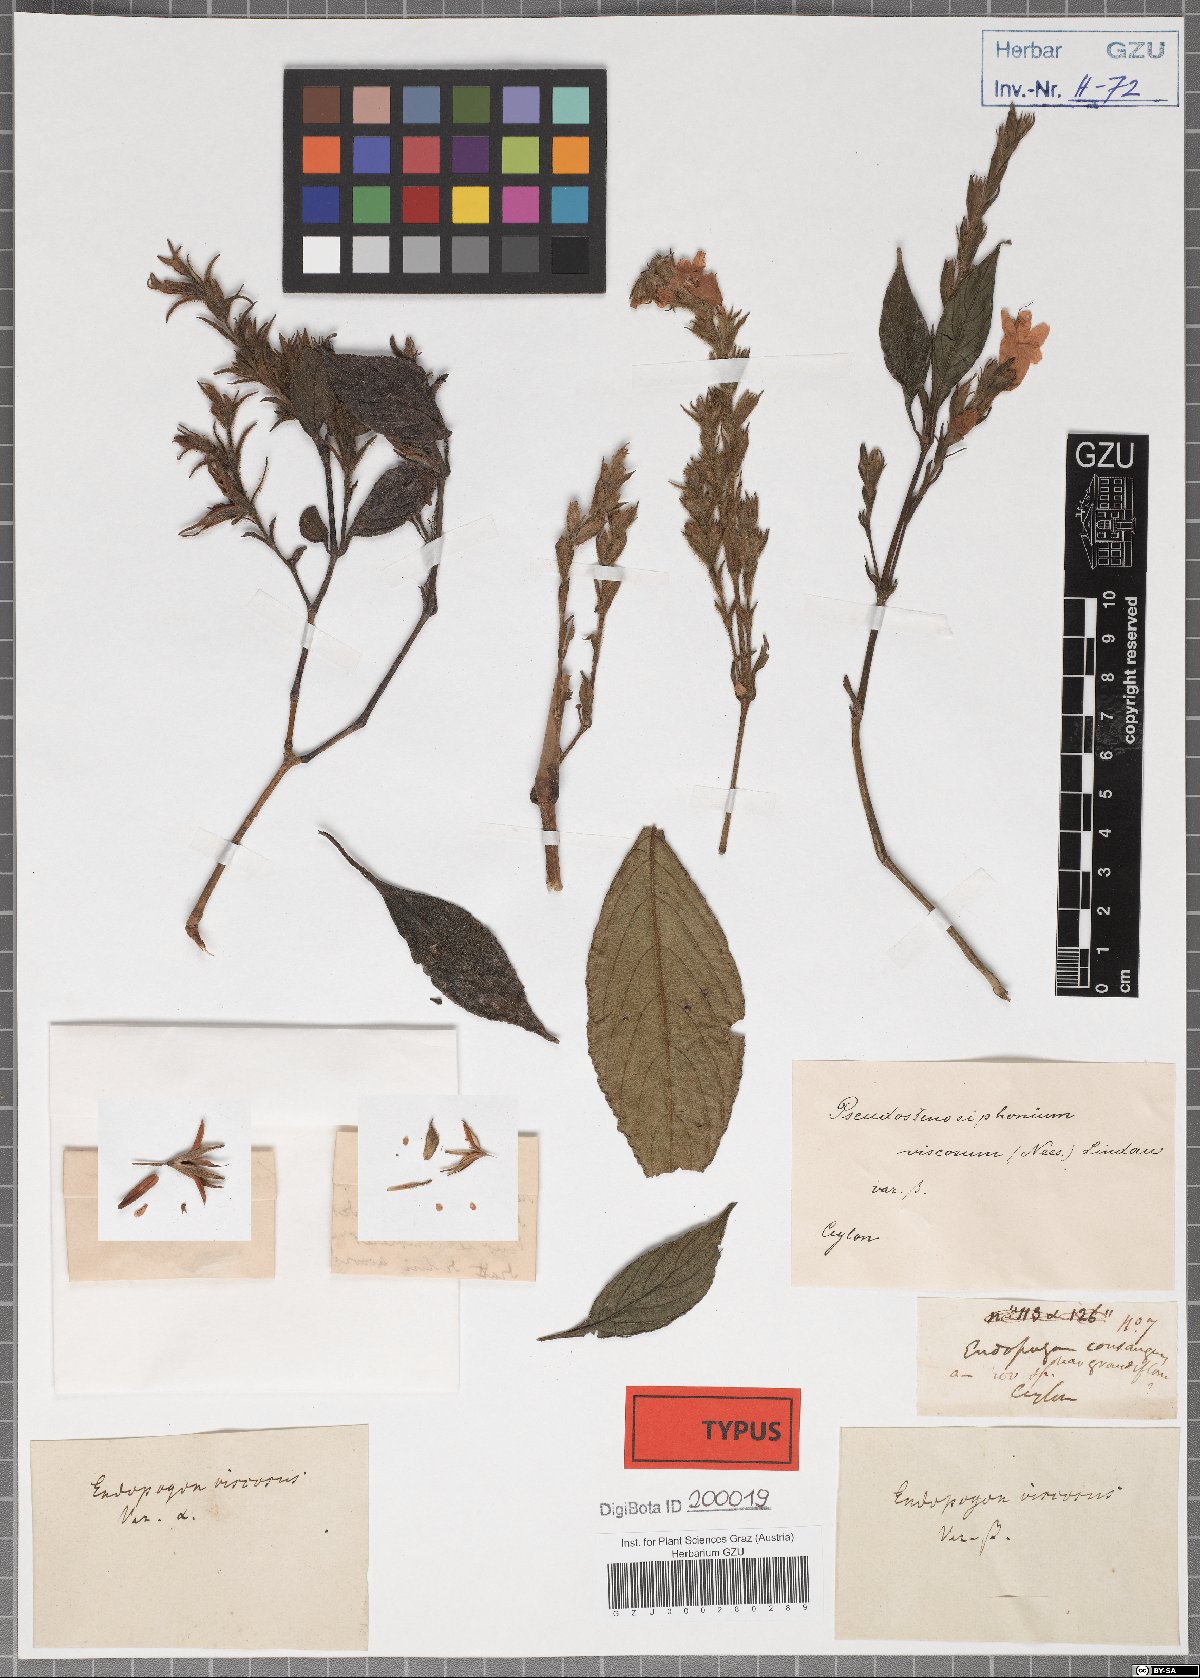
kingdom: Plantae
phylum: Tracheophyta
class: Magnoliopsida
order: Lamiales
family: Acanthaceae
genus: Strobilanthes
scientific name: Strobilanthes viscosa
